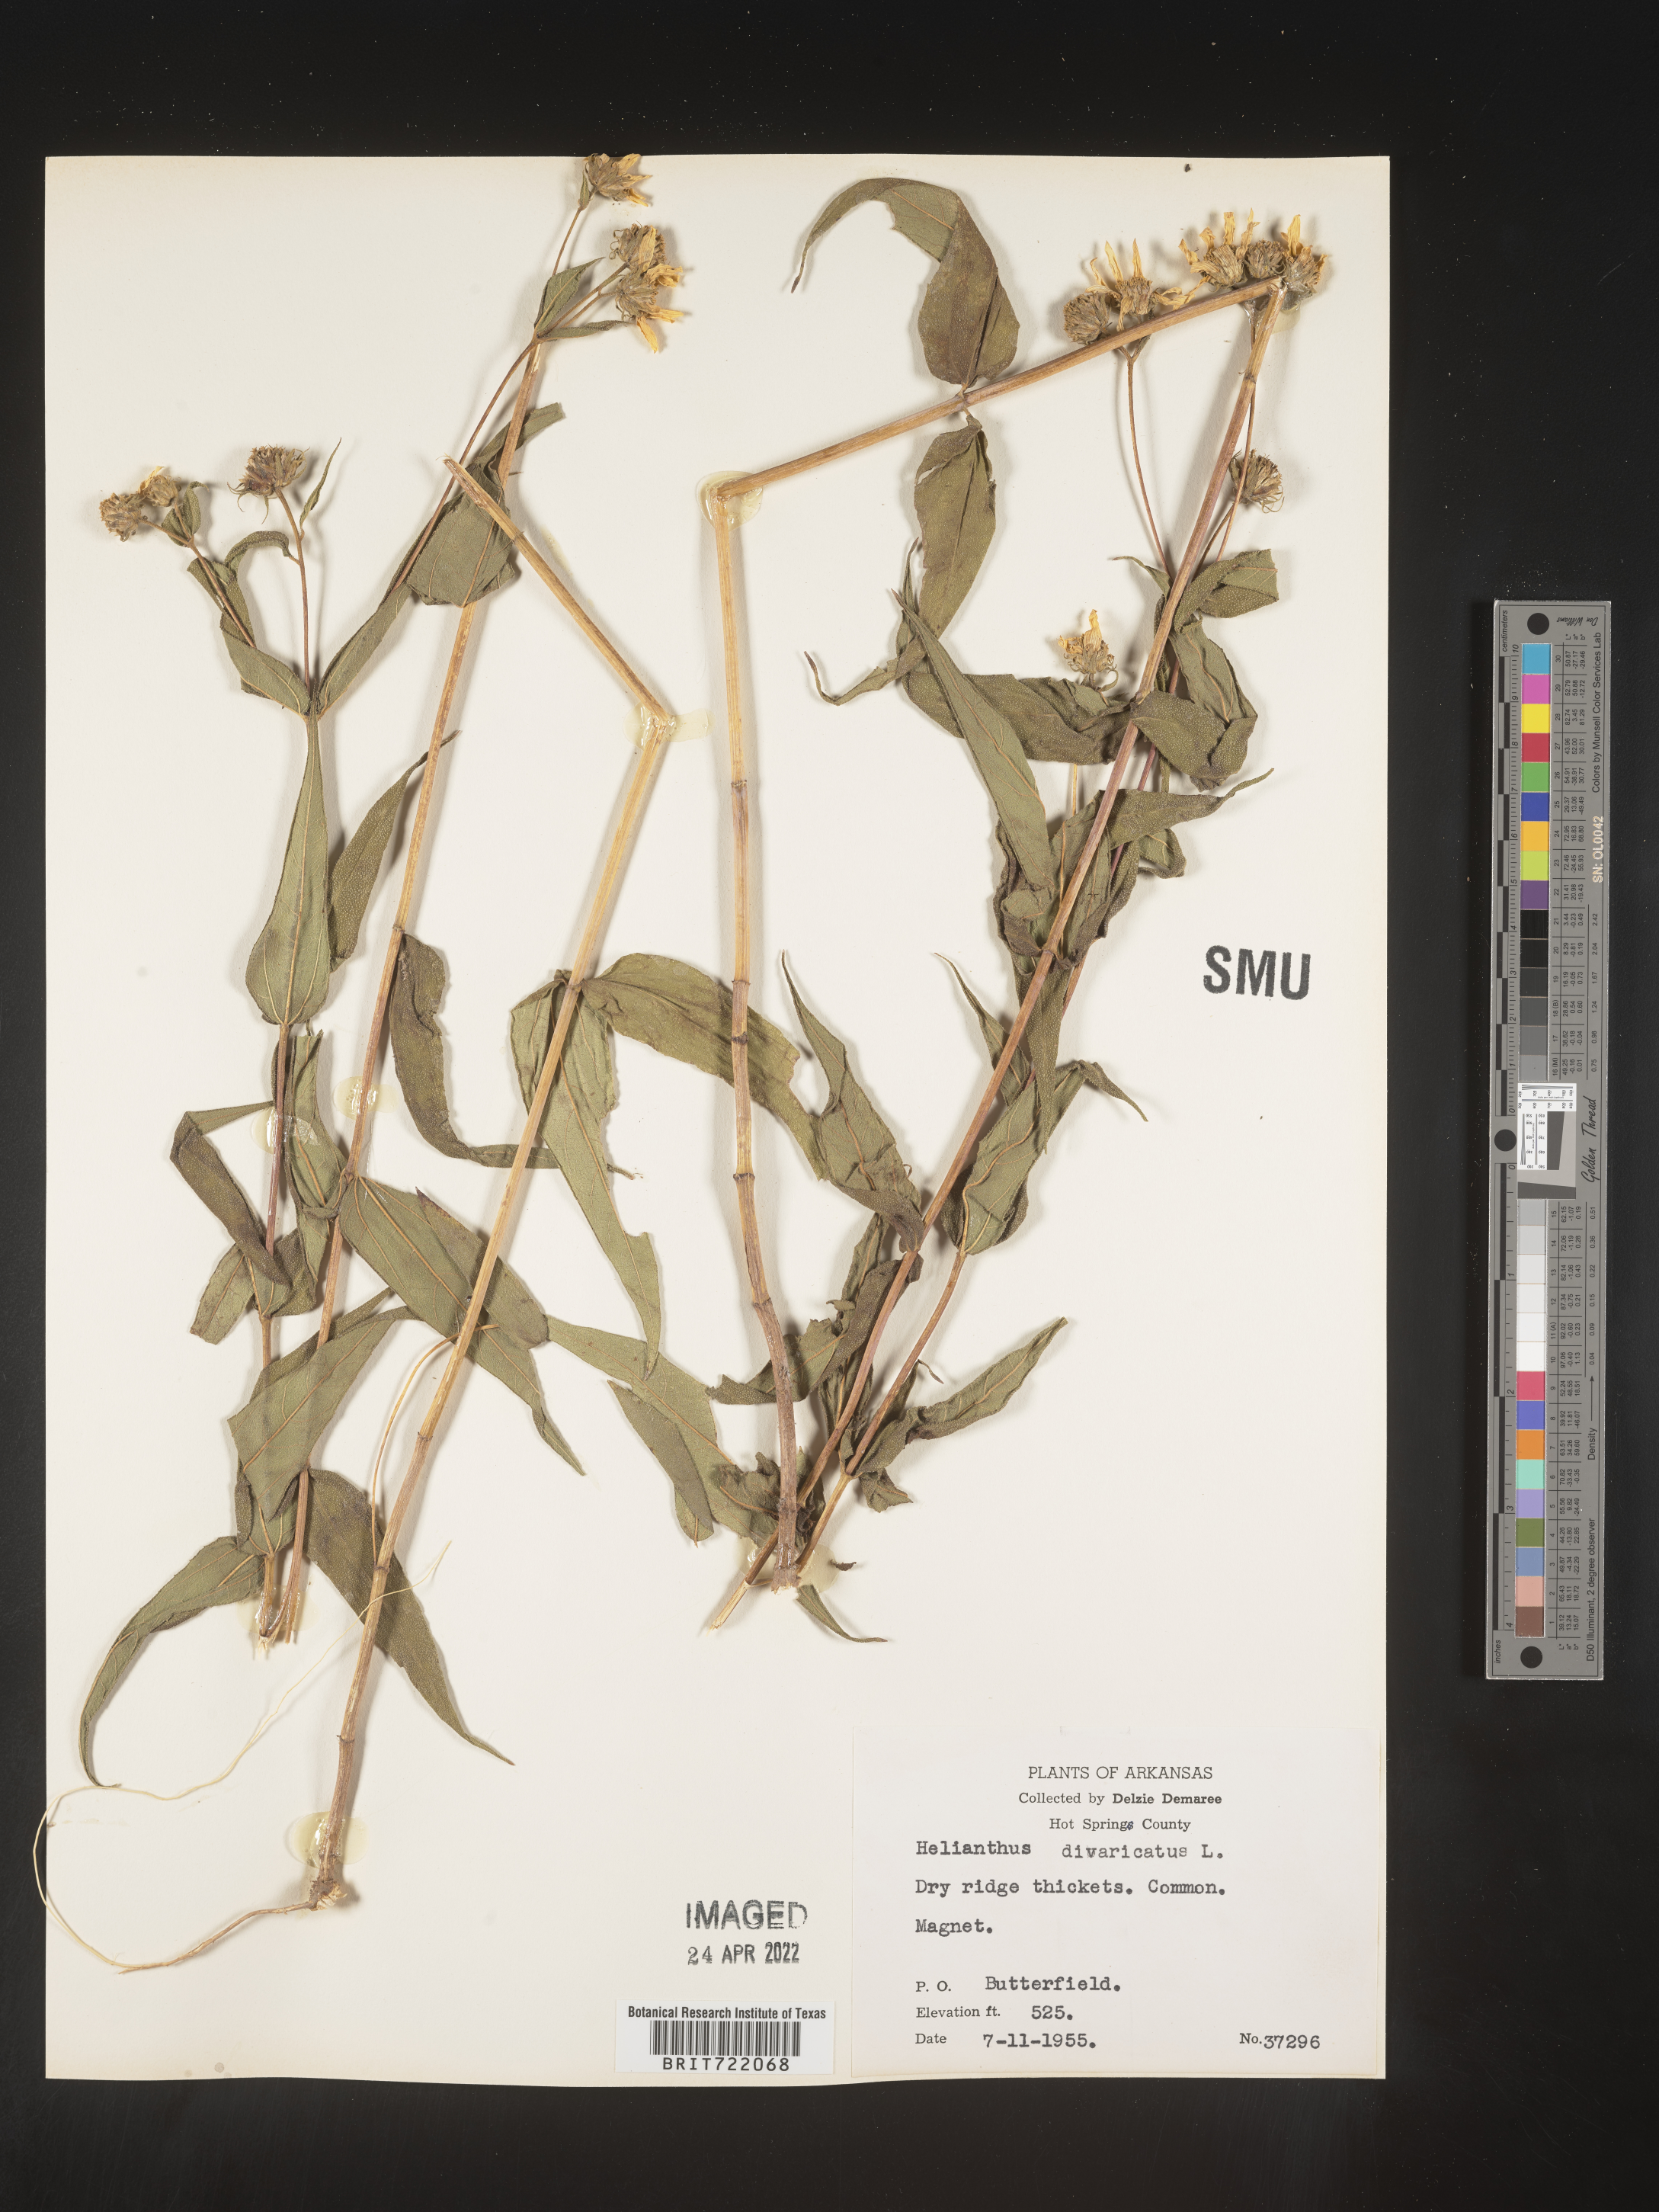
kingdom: Plantae
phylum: Tracheophyta
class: Magnoliopsida
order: Asterales
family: Asteraceae
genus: Helianthus
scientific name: Helianthus divaricatus
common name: Divergent sunflower
